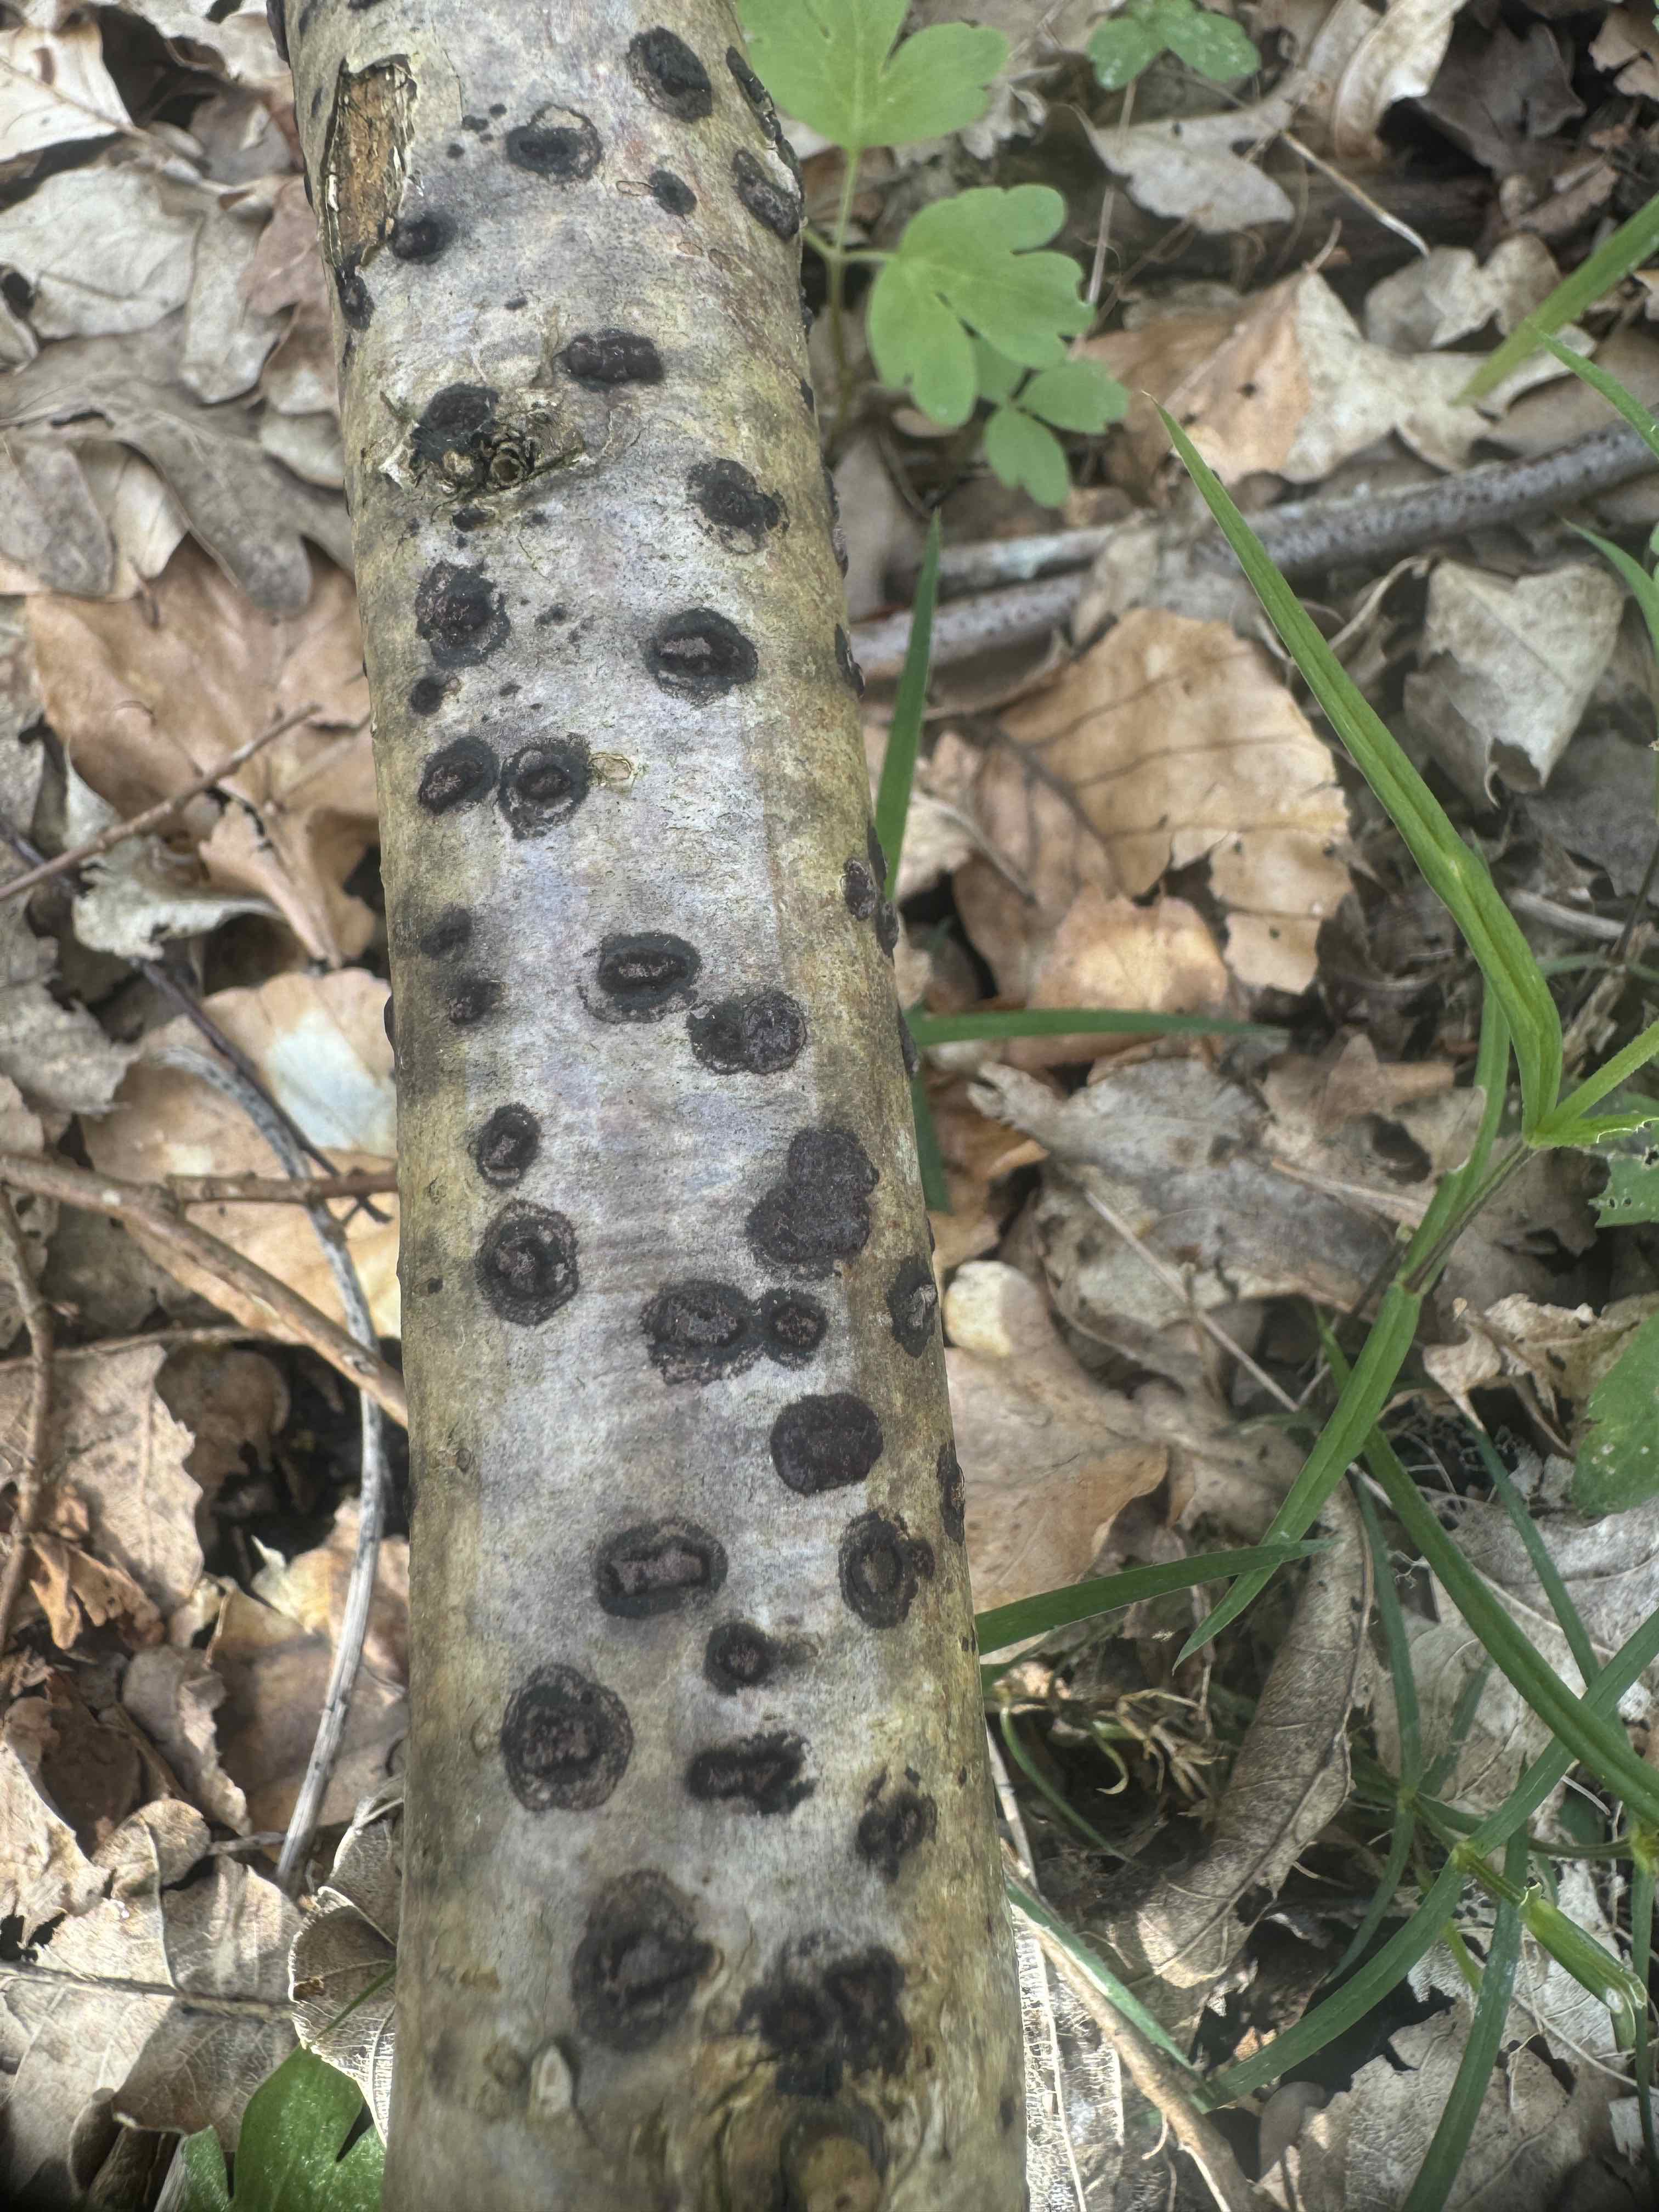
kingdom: Fungi
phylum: Ascomycota
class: Sordariomycetes
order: Xylariales
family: Hypoxylaceae
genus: Hypoxylon
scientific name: Hypoxylon fuscum
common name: kegleformet kulbær
